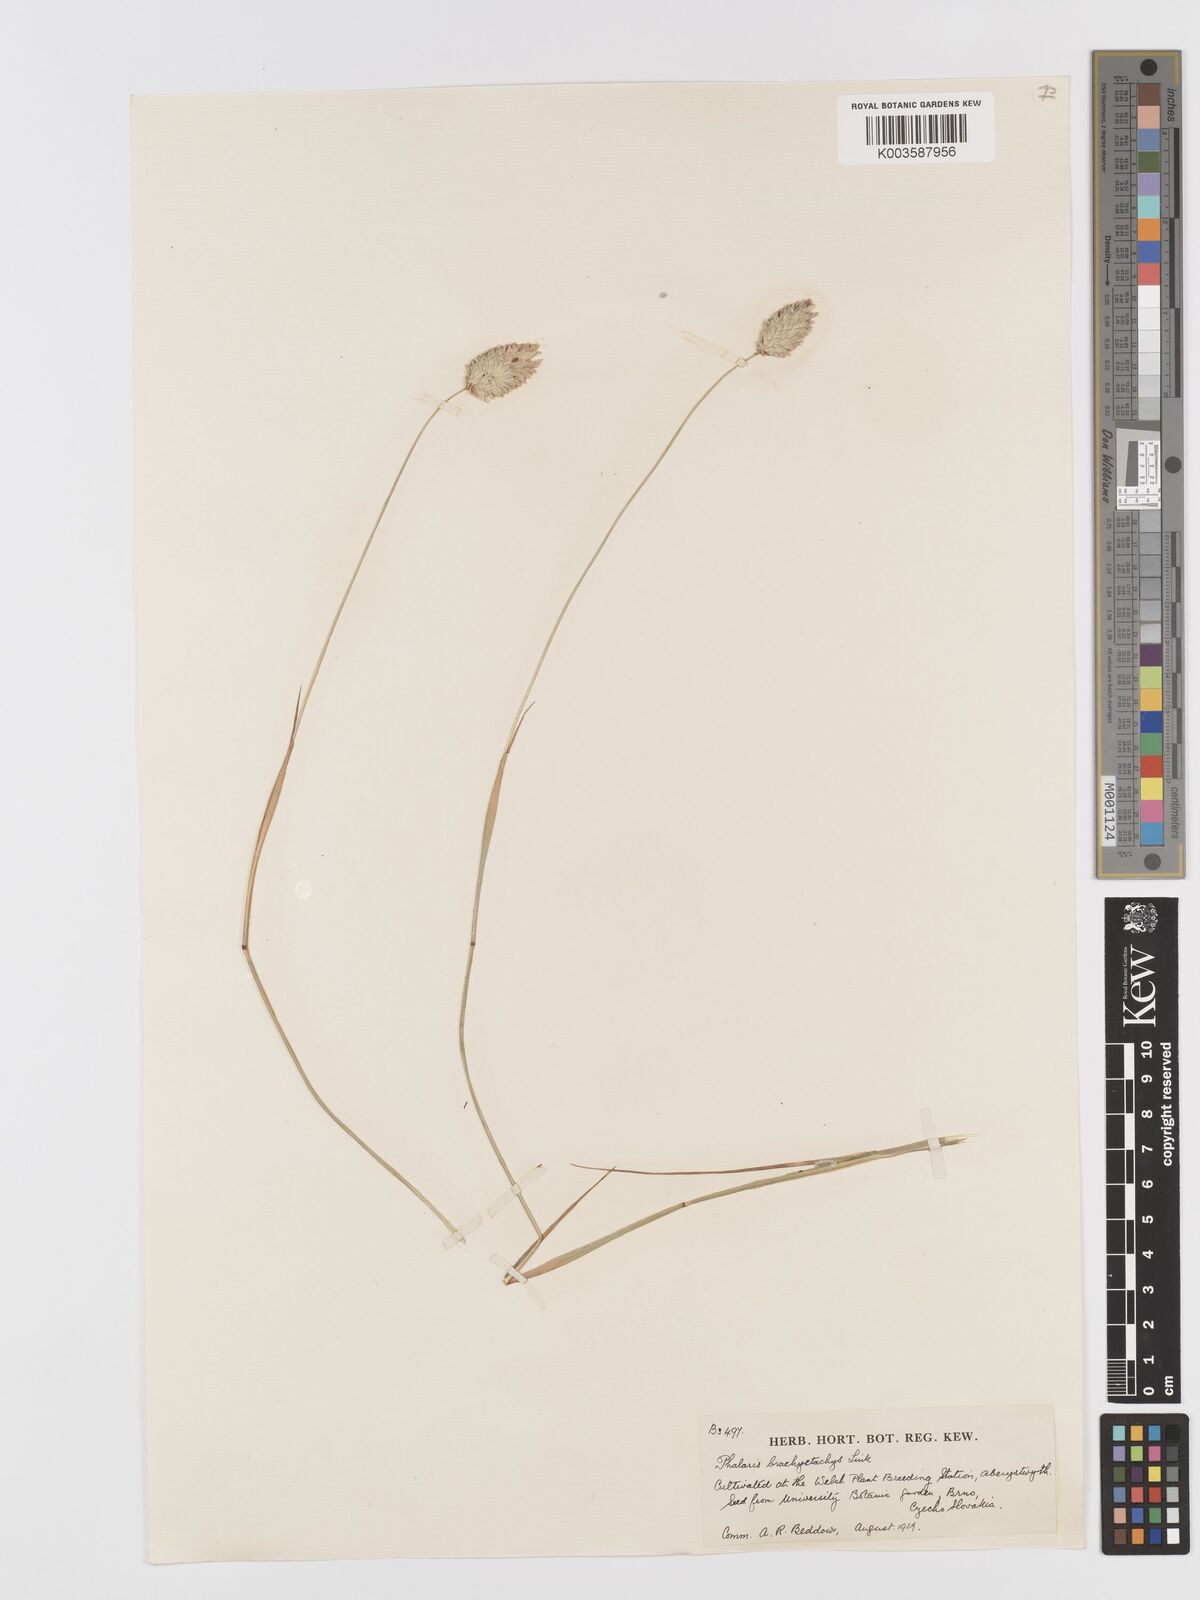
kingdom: Plantae
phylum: Tracheophyta
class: Liliopsida
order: Poales
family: Poaceae
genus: Phalaris
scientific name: Phalaris brachystachys
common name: Confused canary-grass
